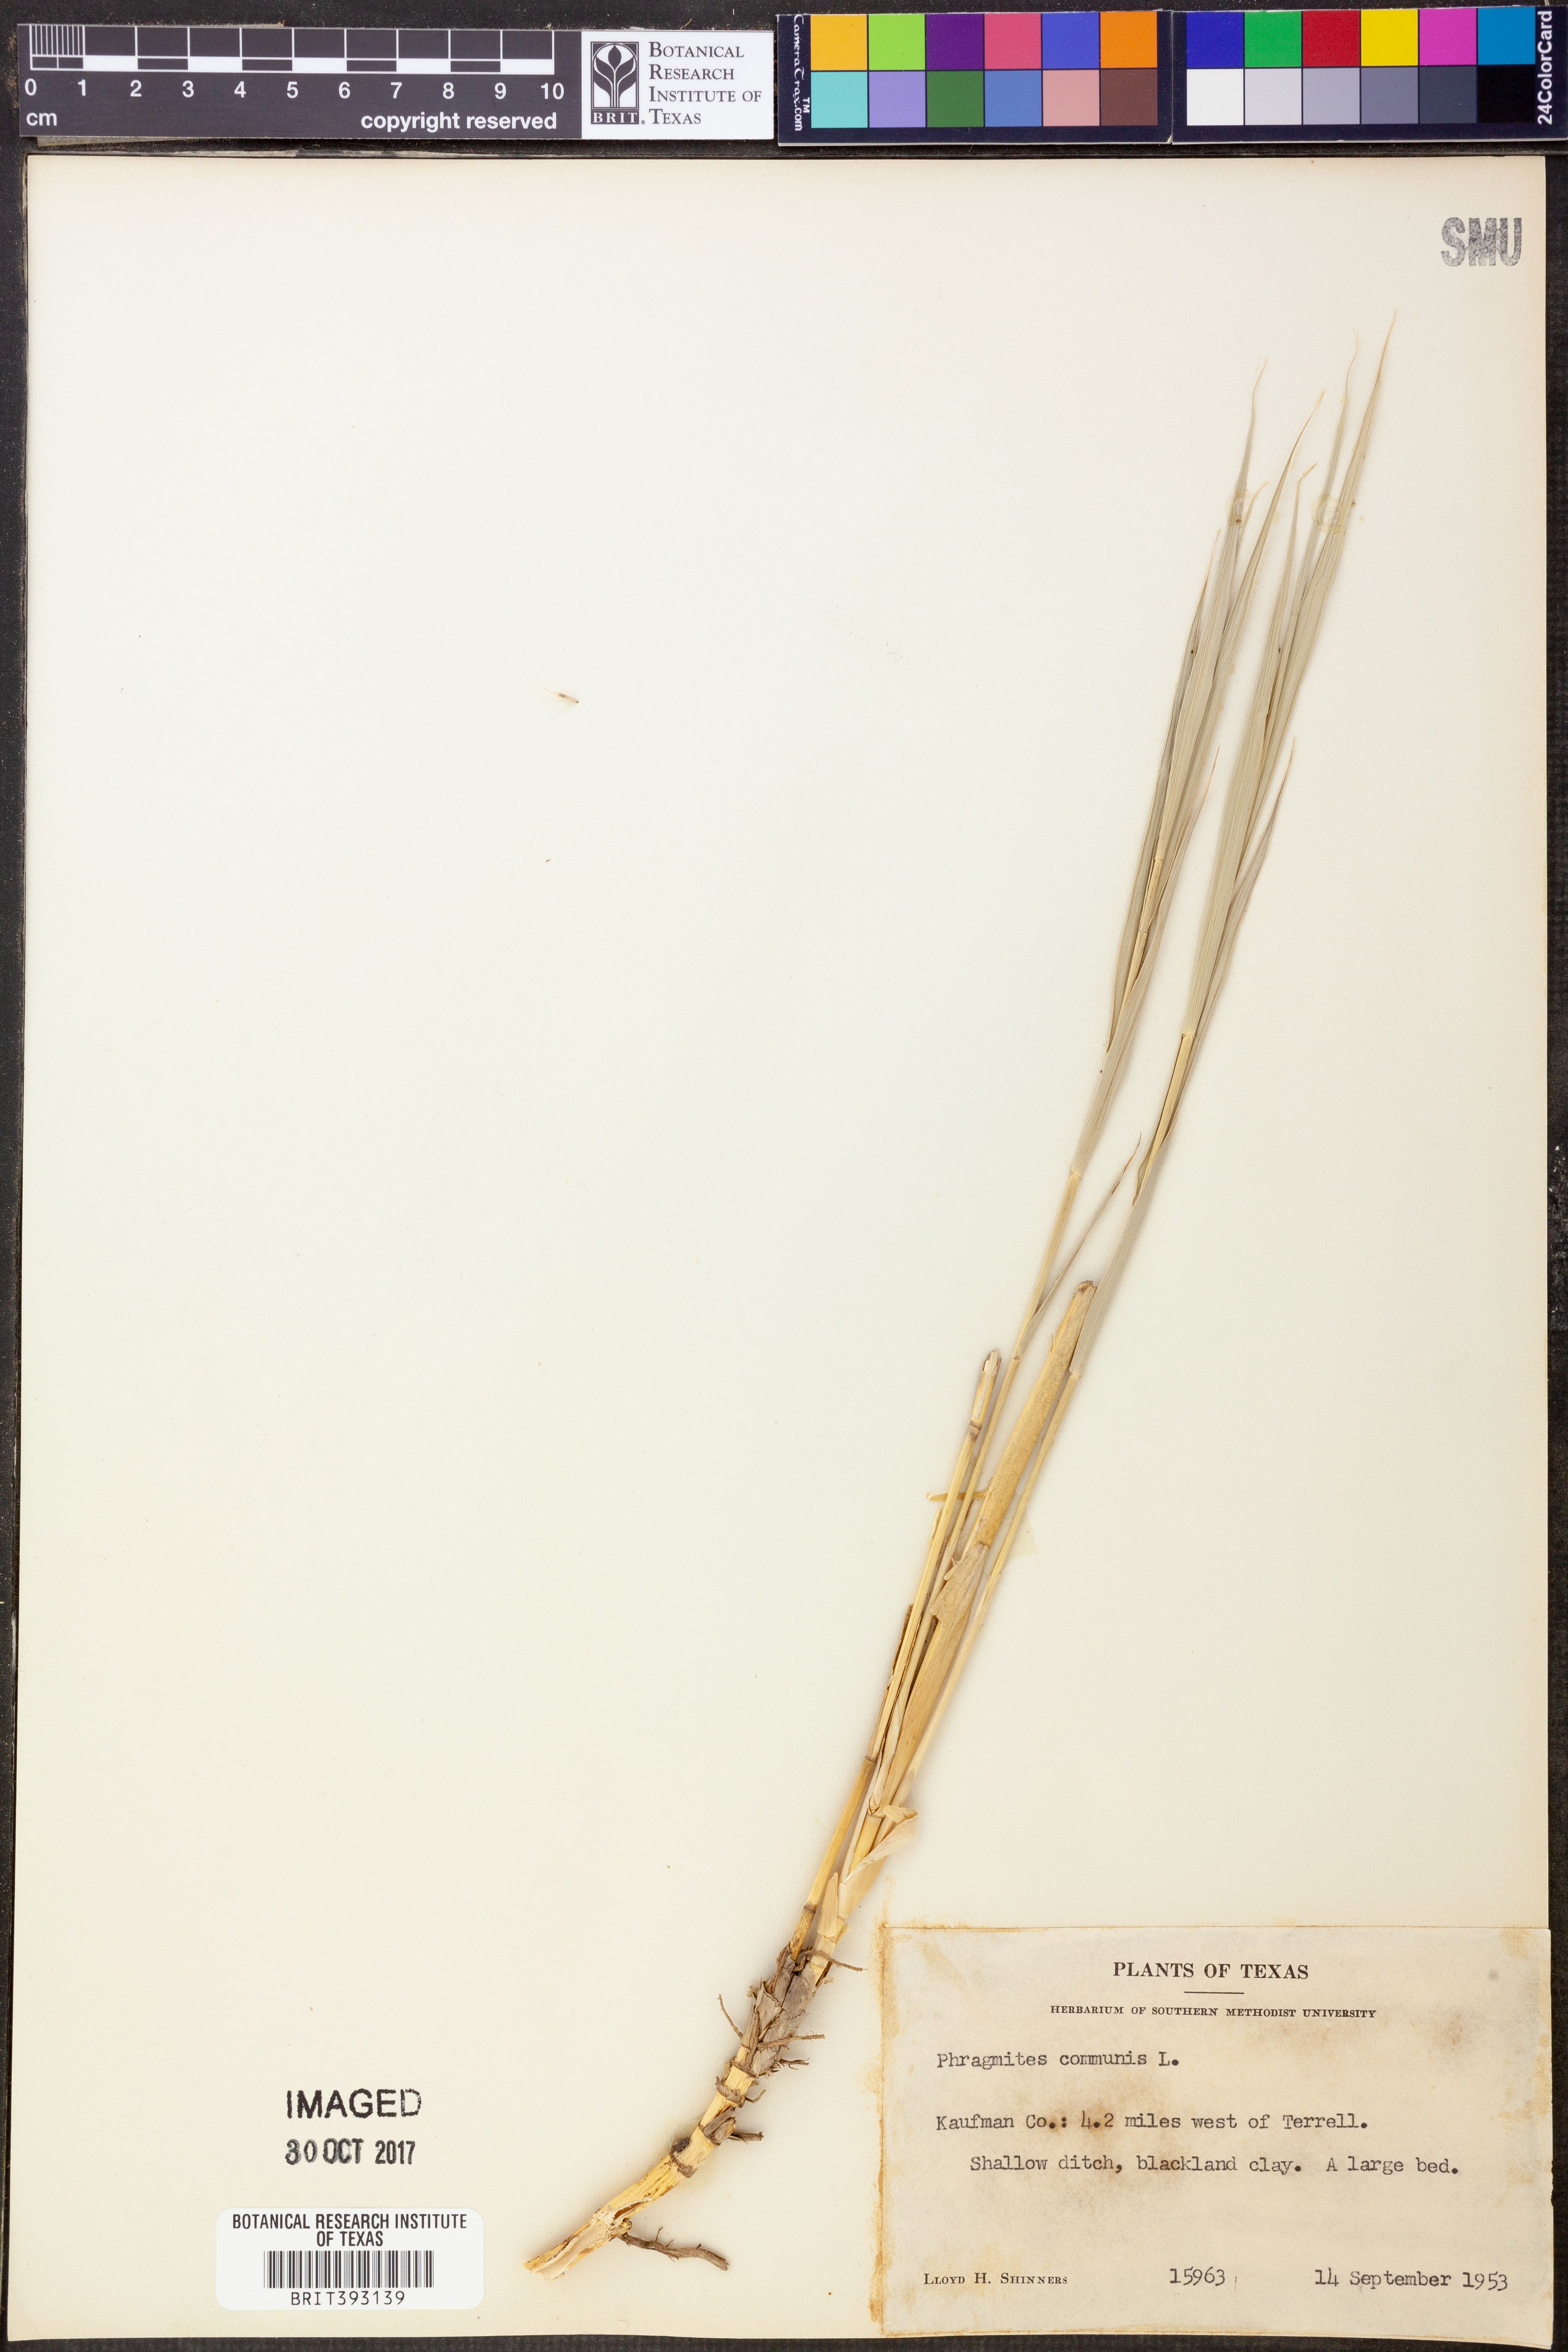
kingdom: Plantae
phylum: Tracheophyta
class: Liliopsida
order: Poales
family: Poaceae
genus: Phragmites
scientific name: Phragmites australis
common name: Common reed
